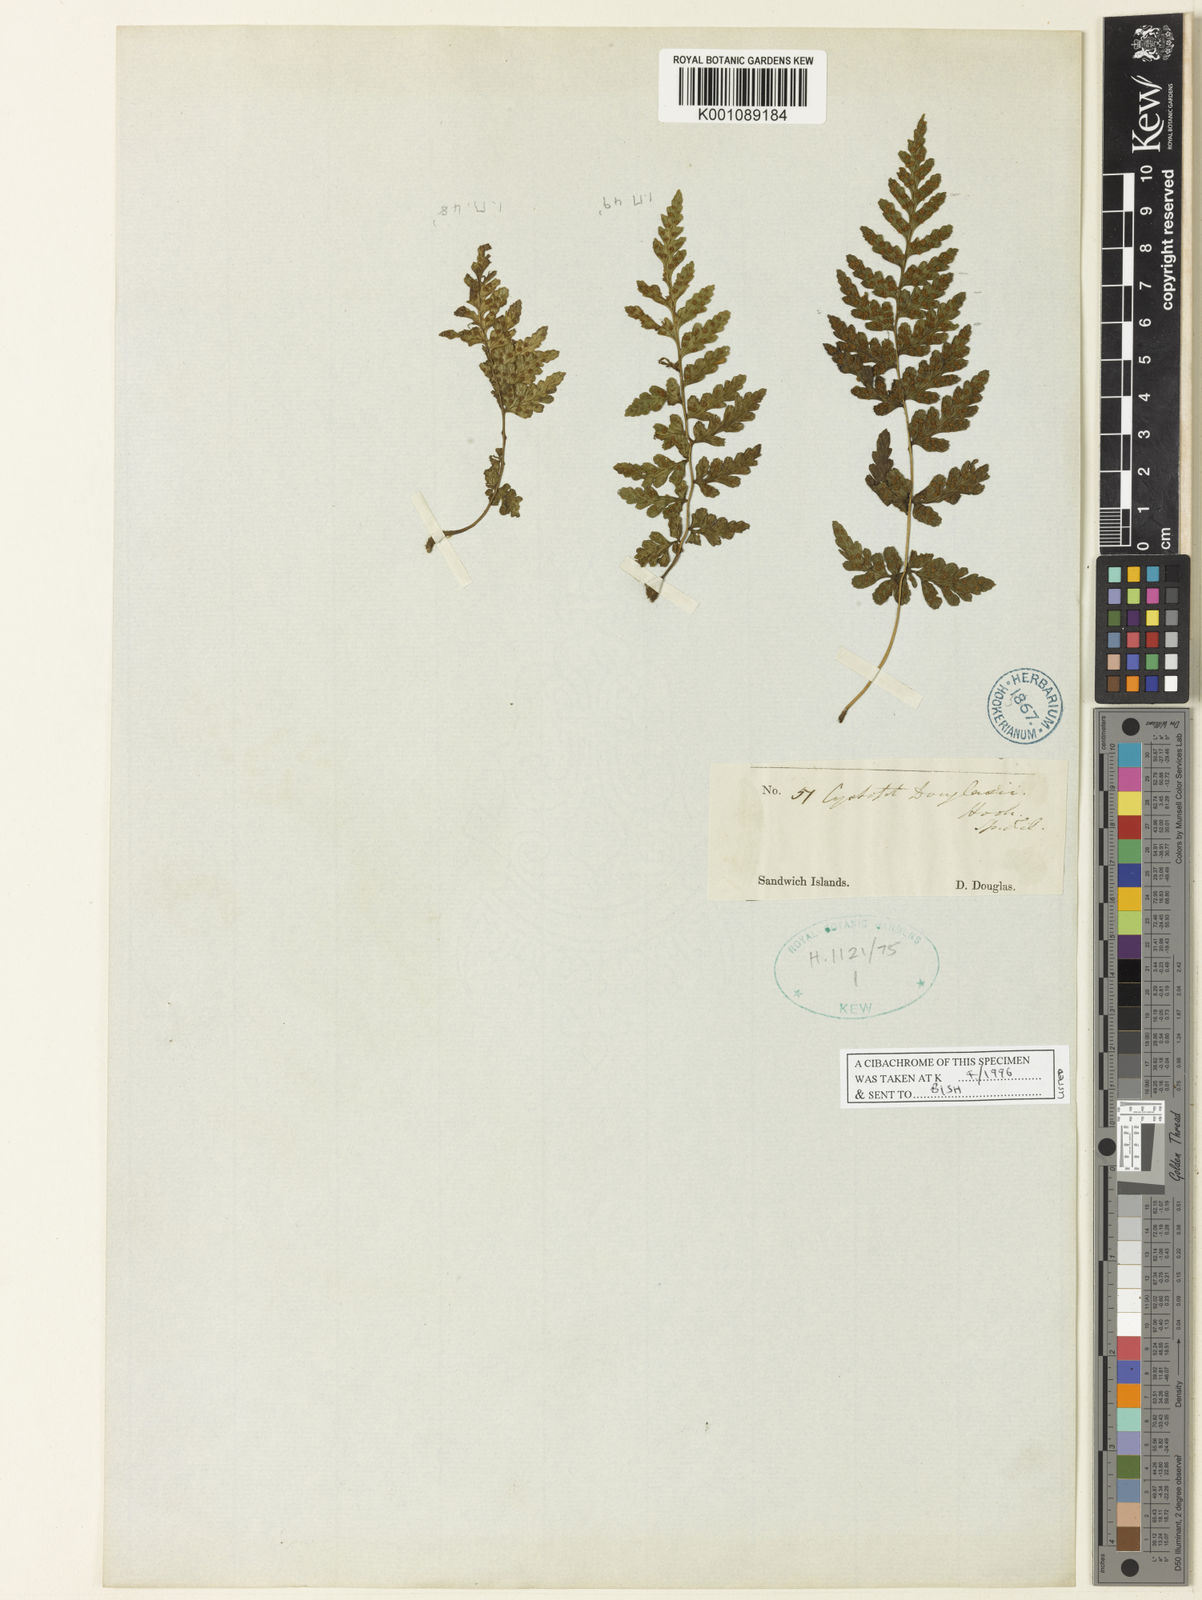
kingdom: Plantae
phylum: Tracheophyta
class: Polypodiopsida
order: Polypodiales
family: Cystopteridaceae
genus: Cystopteris
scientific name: Cystopteris douglasii
